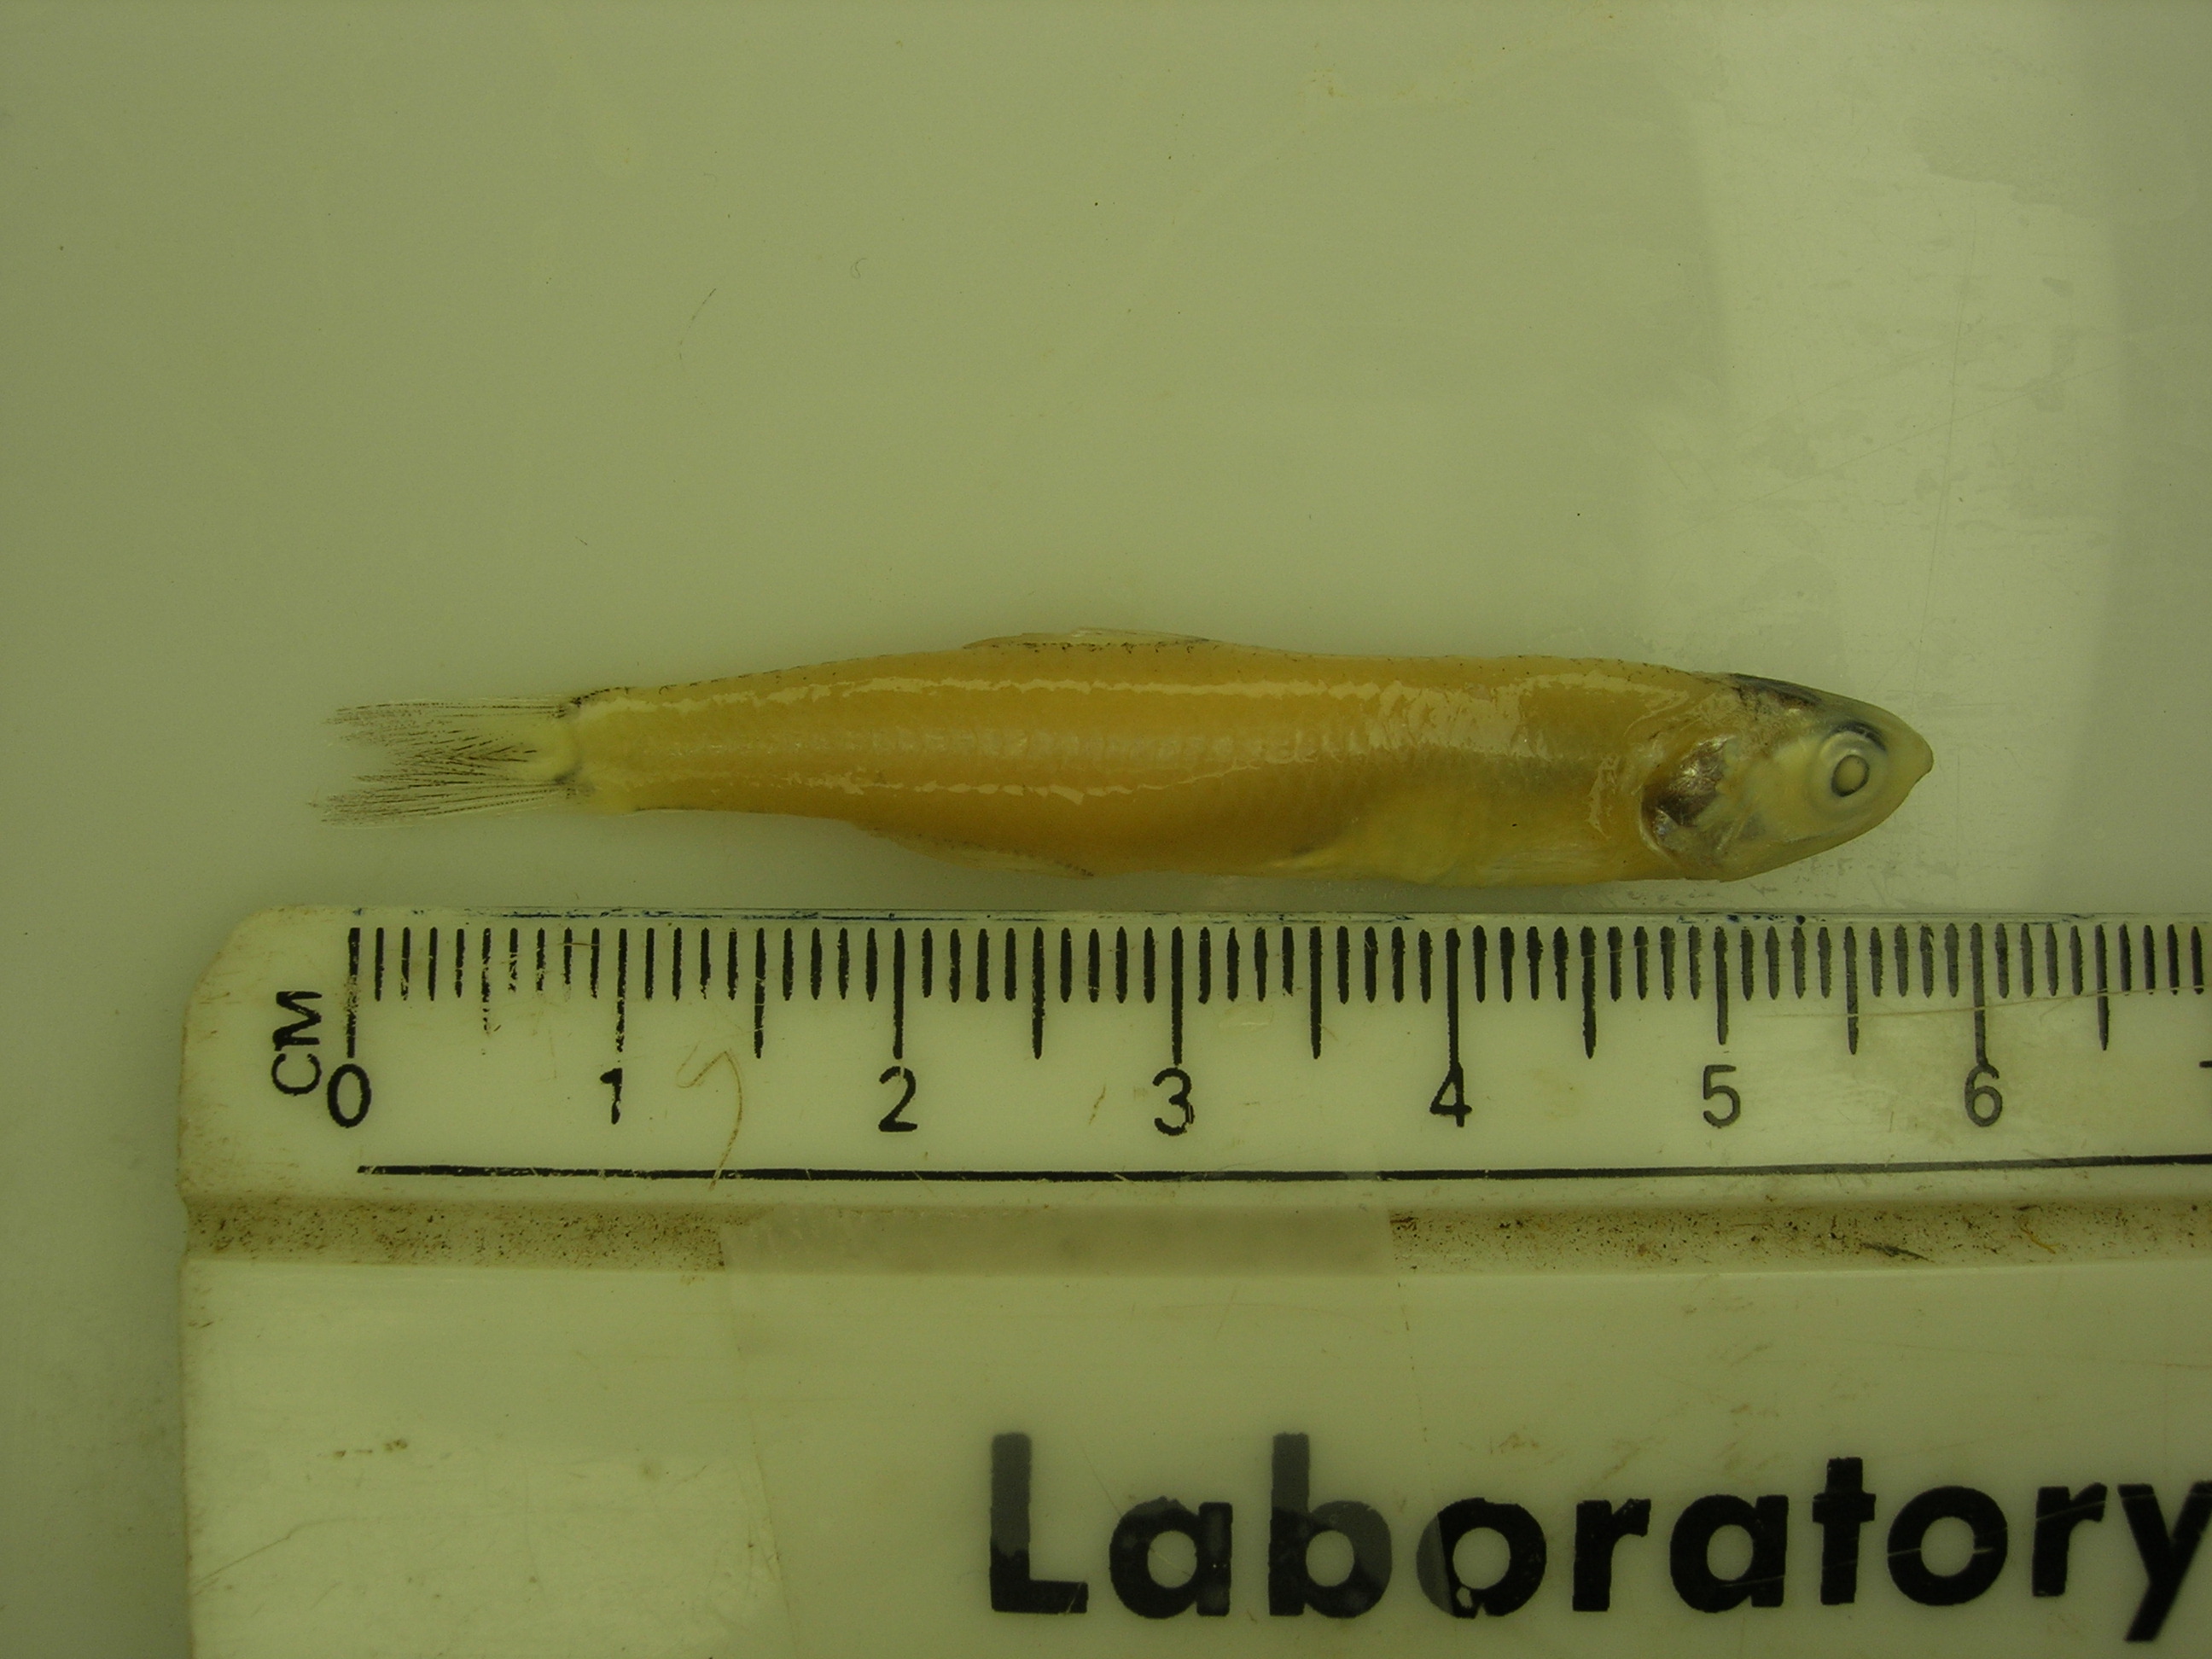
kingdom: Animalia
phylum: Chordata
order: Clupeiformes
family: Engraulidae
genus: Stolephorus
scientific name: Stolephorus indicus
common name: Indian anchovy
